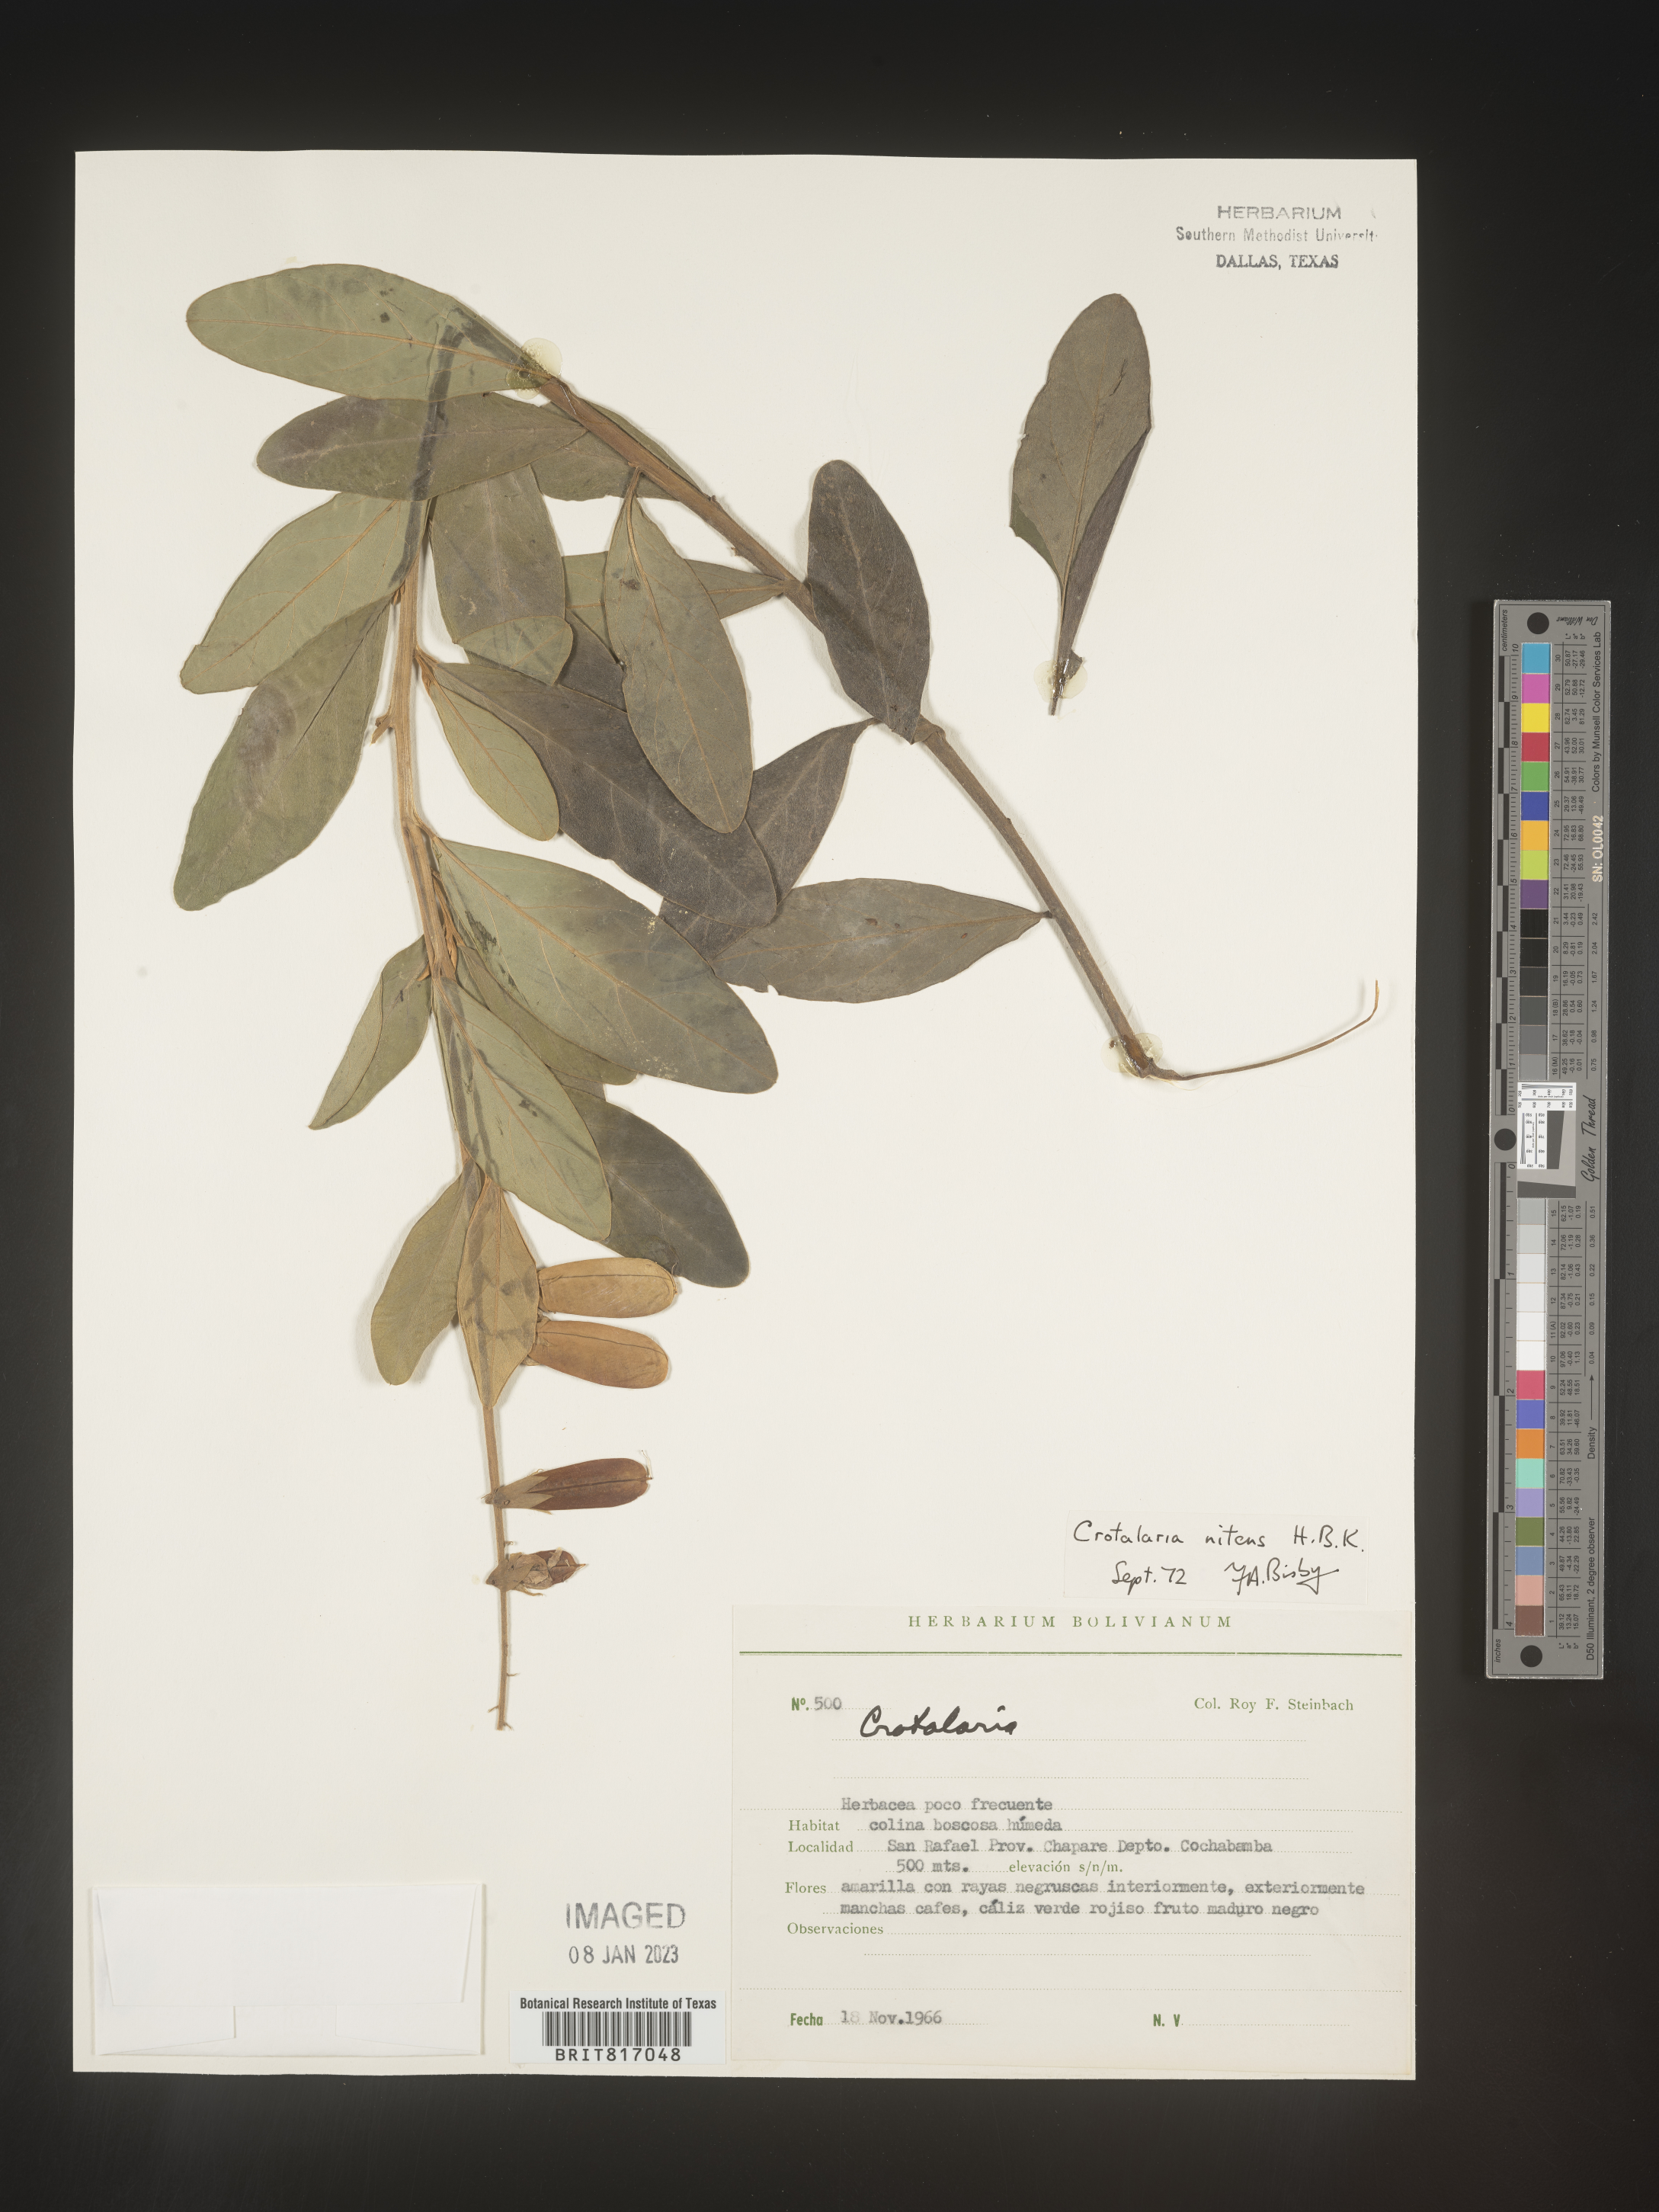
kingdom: Plantae
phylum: Tracheophyta
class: Magnoliopsida
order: Fabales
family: Fabaceae
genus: Crotalaria
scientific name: Crotalaria
